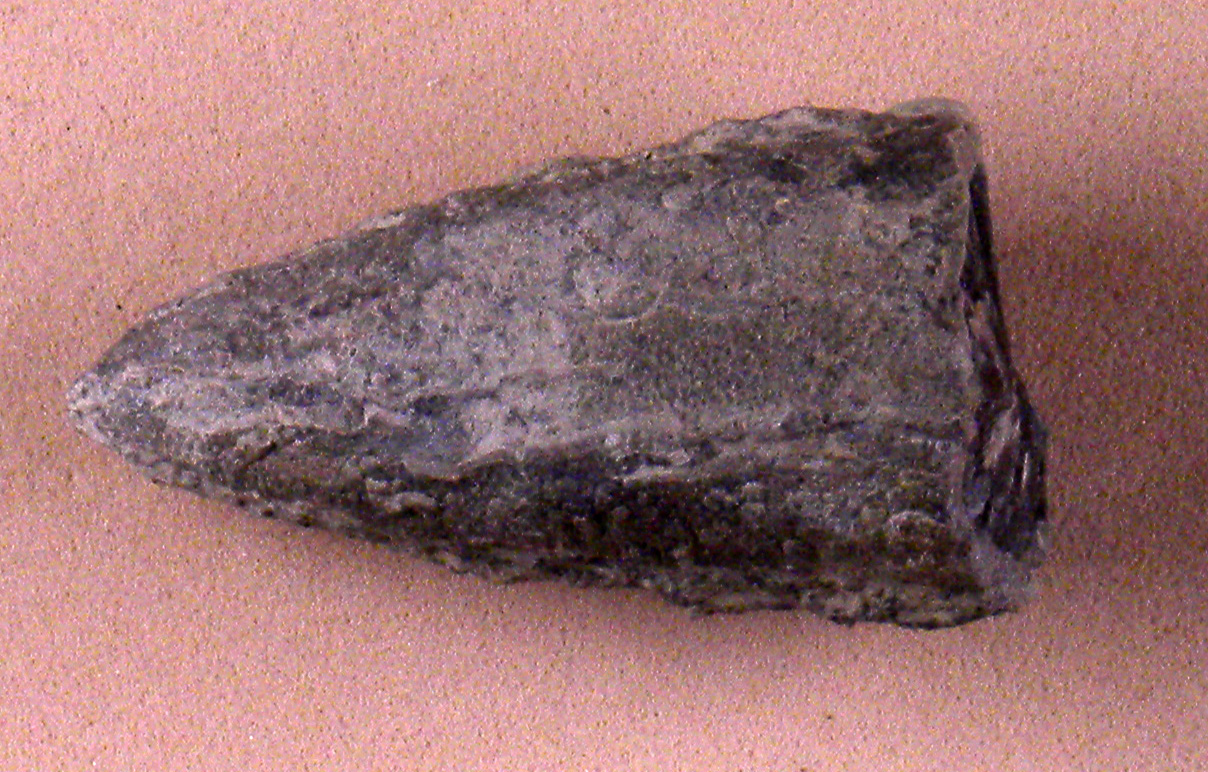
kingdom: Animalia
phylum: Mollusca
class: Cephalopoda
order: Belemnitida
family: Megateuthididae
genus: Acrocoelites
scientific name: Acrocoelites levidensis
